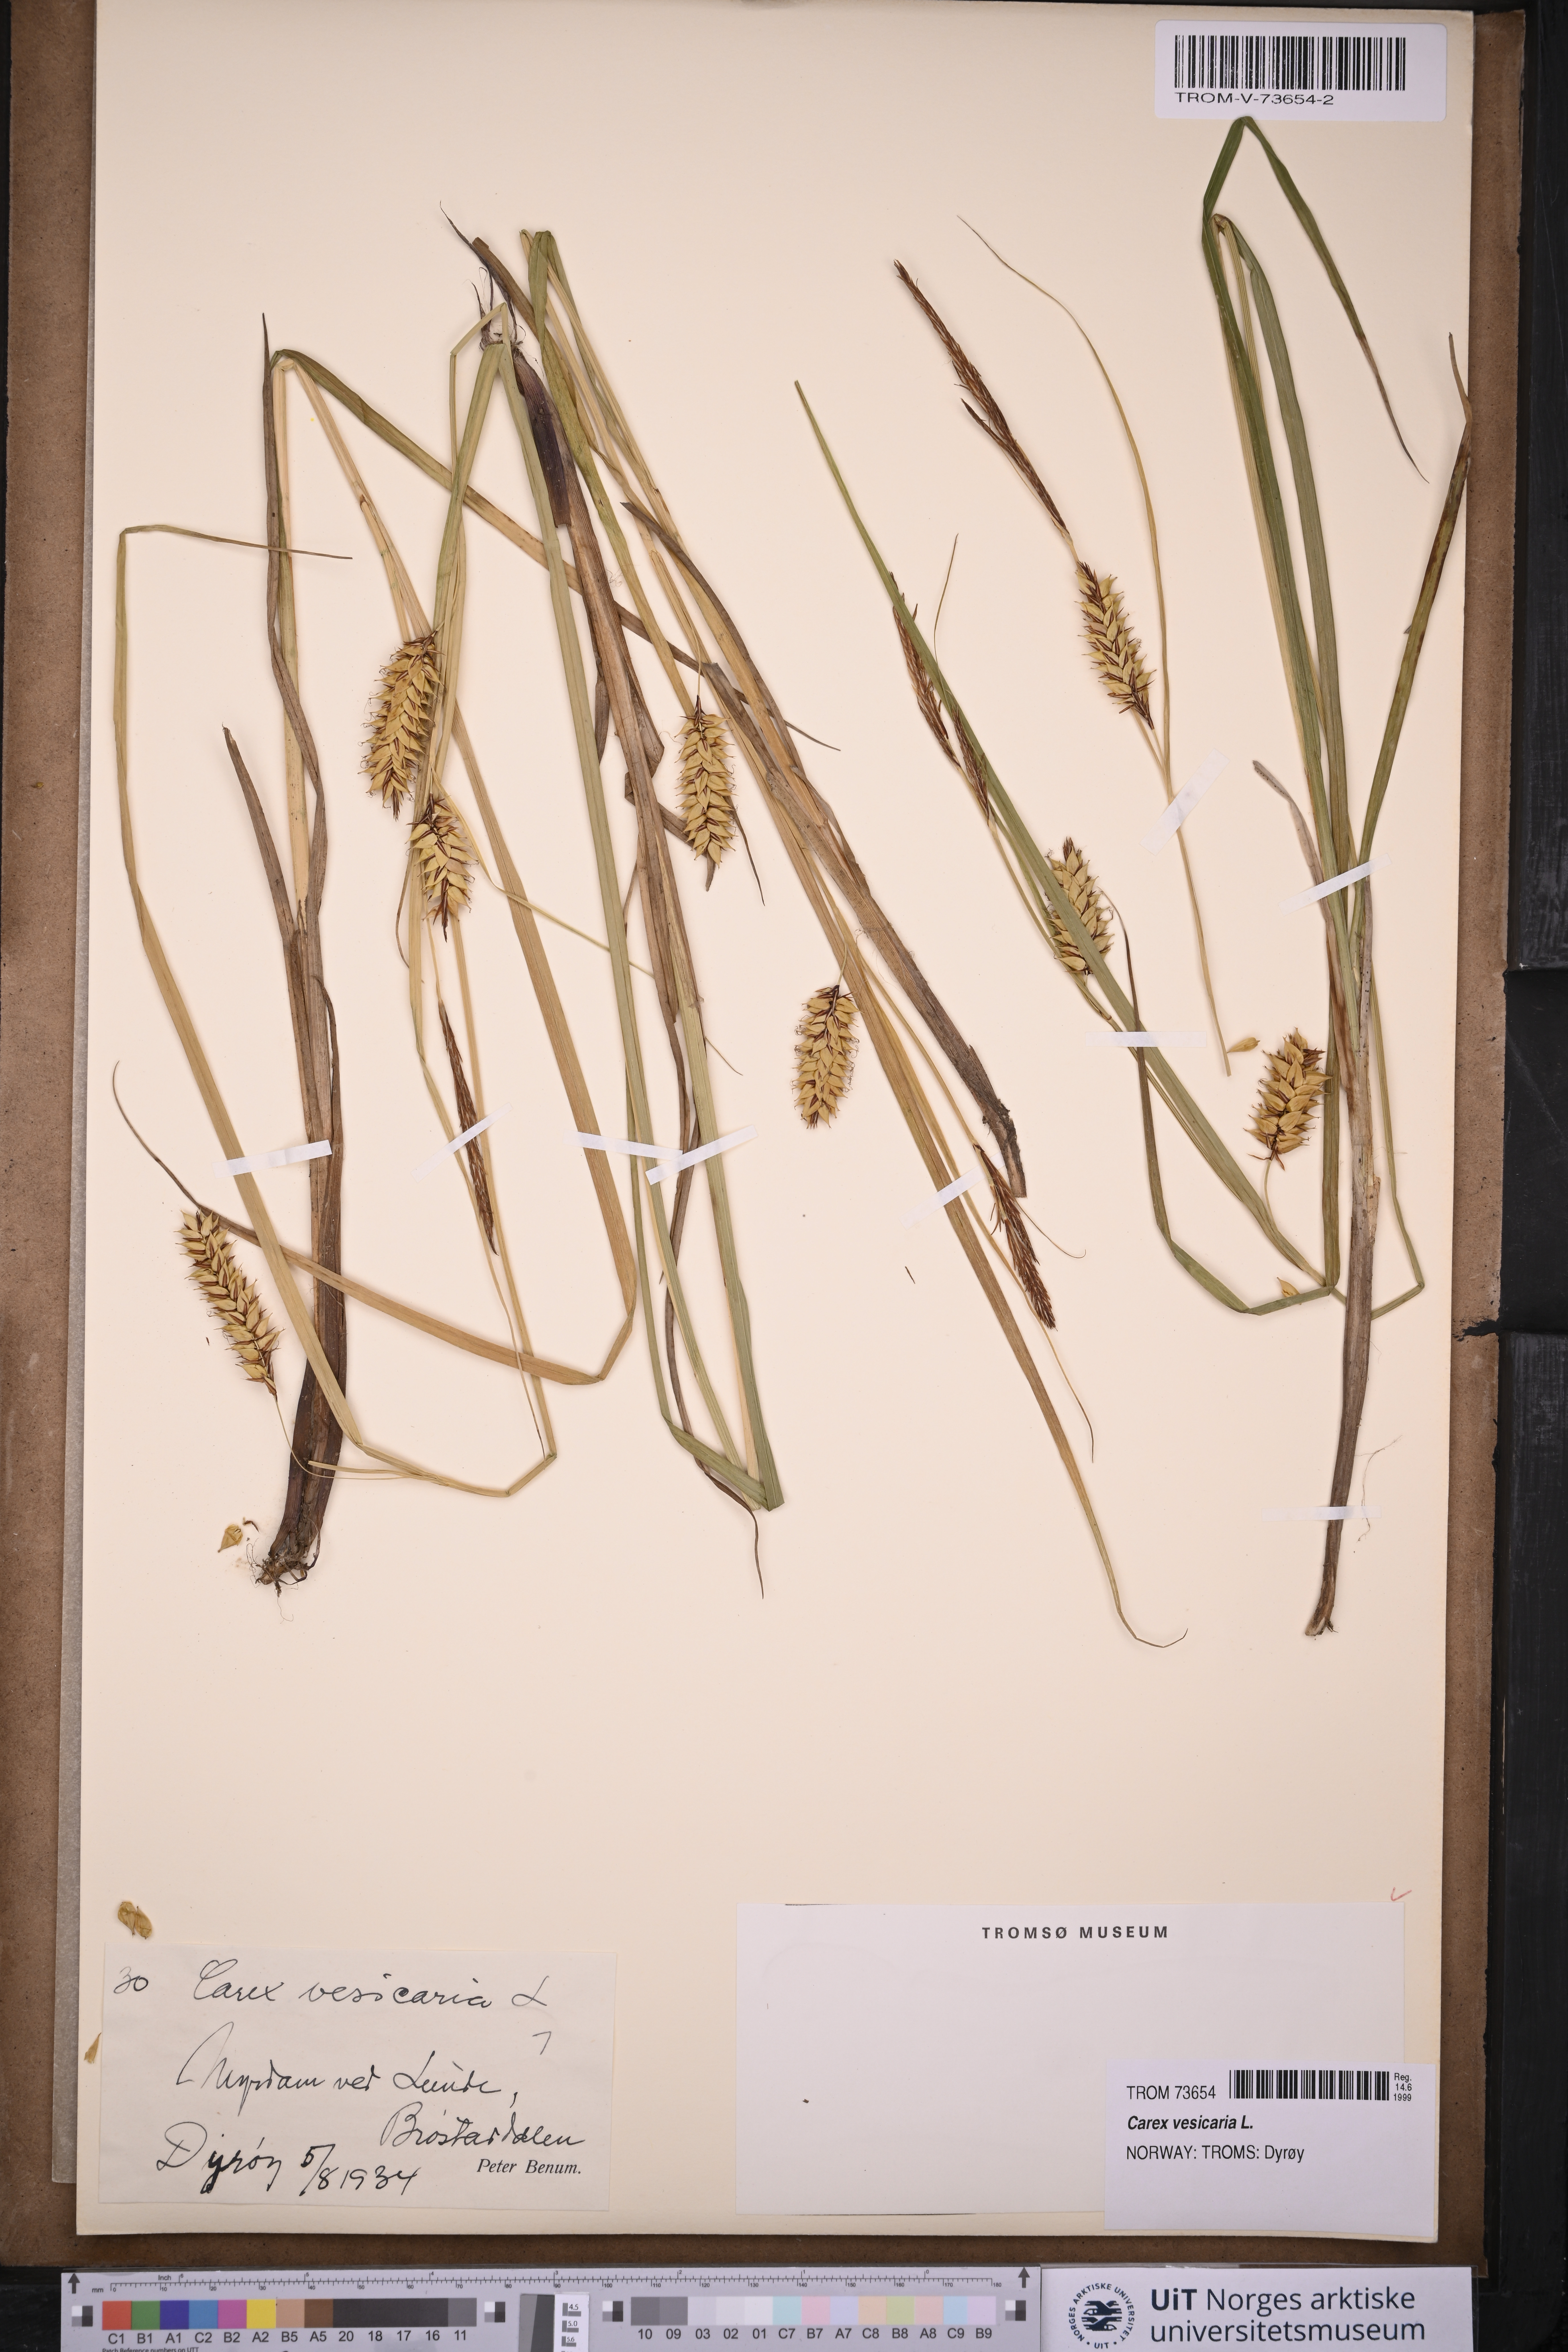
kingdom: Plantae
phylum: Tracheophyta
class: Liliopsida
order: Poales
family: Cyperaceae
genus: Carex
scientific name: Carex vesicaria
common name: Bladder-sedge
